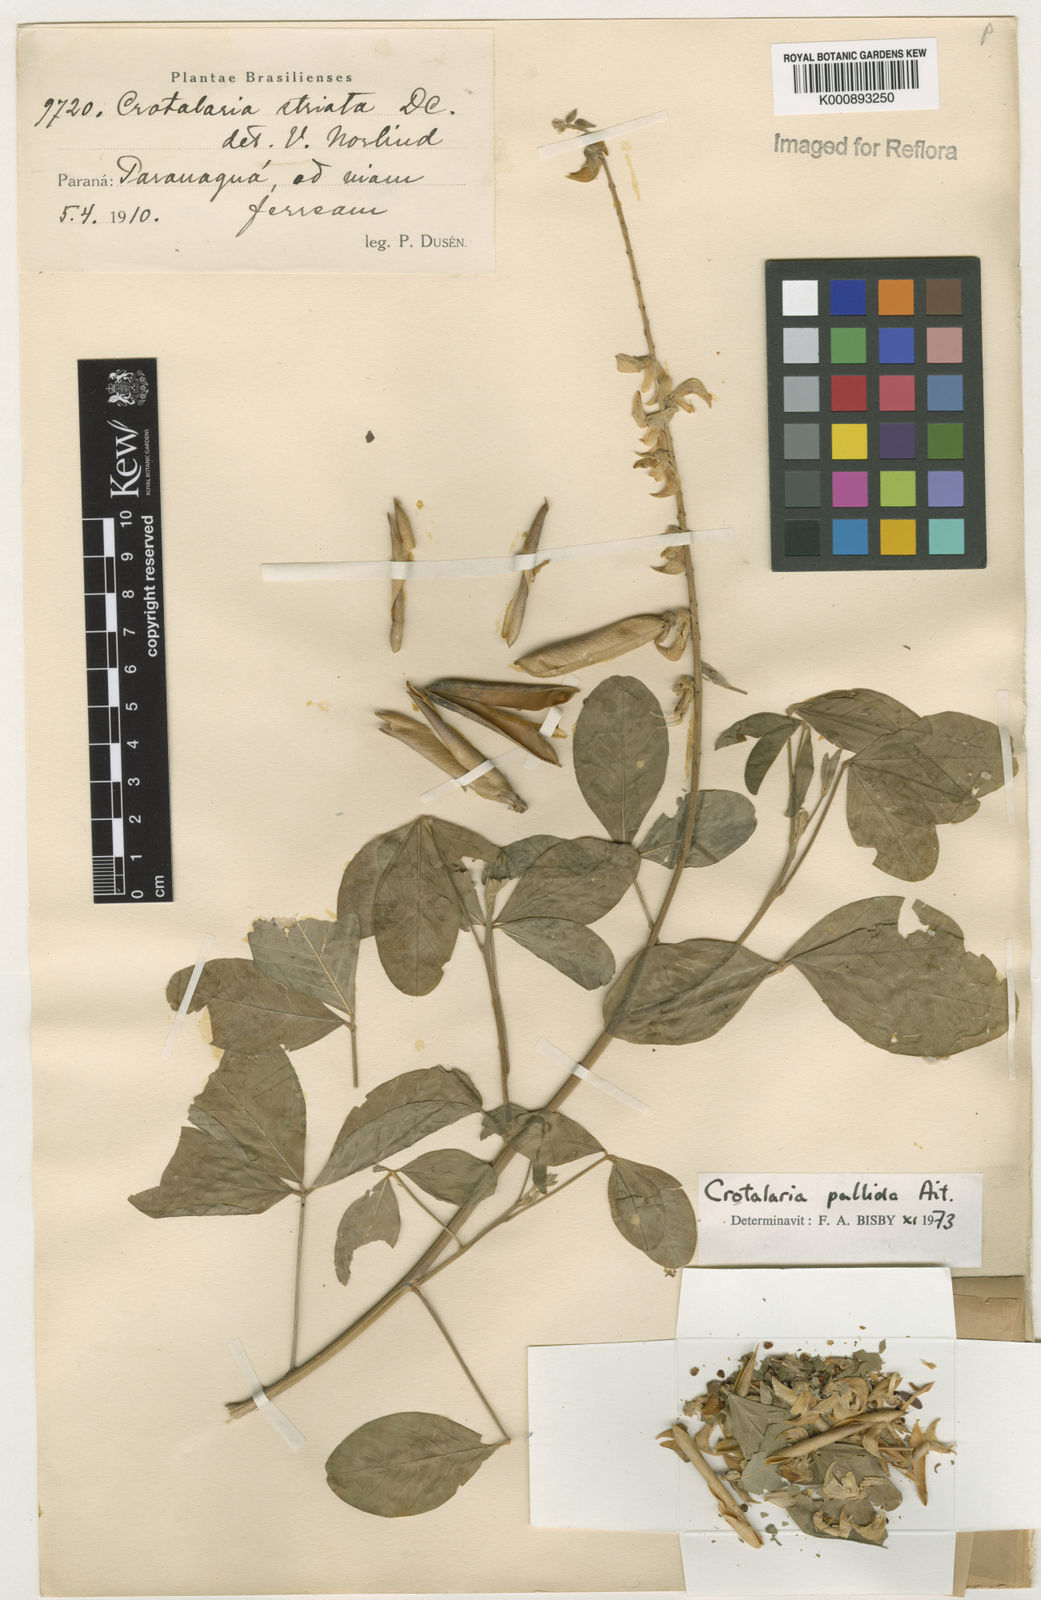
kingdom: Plantae
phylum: Tracheophyta
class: Magnoliopsida
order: Fabales
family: Fabaceae
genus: Crotalaria
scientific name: Crotalaria pallida
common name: Smooth rattlebox
